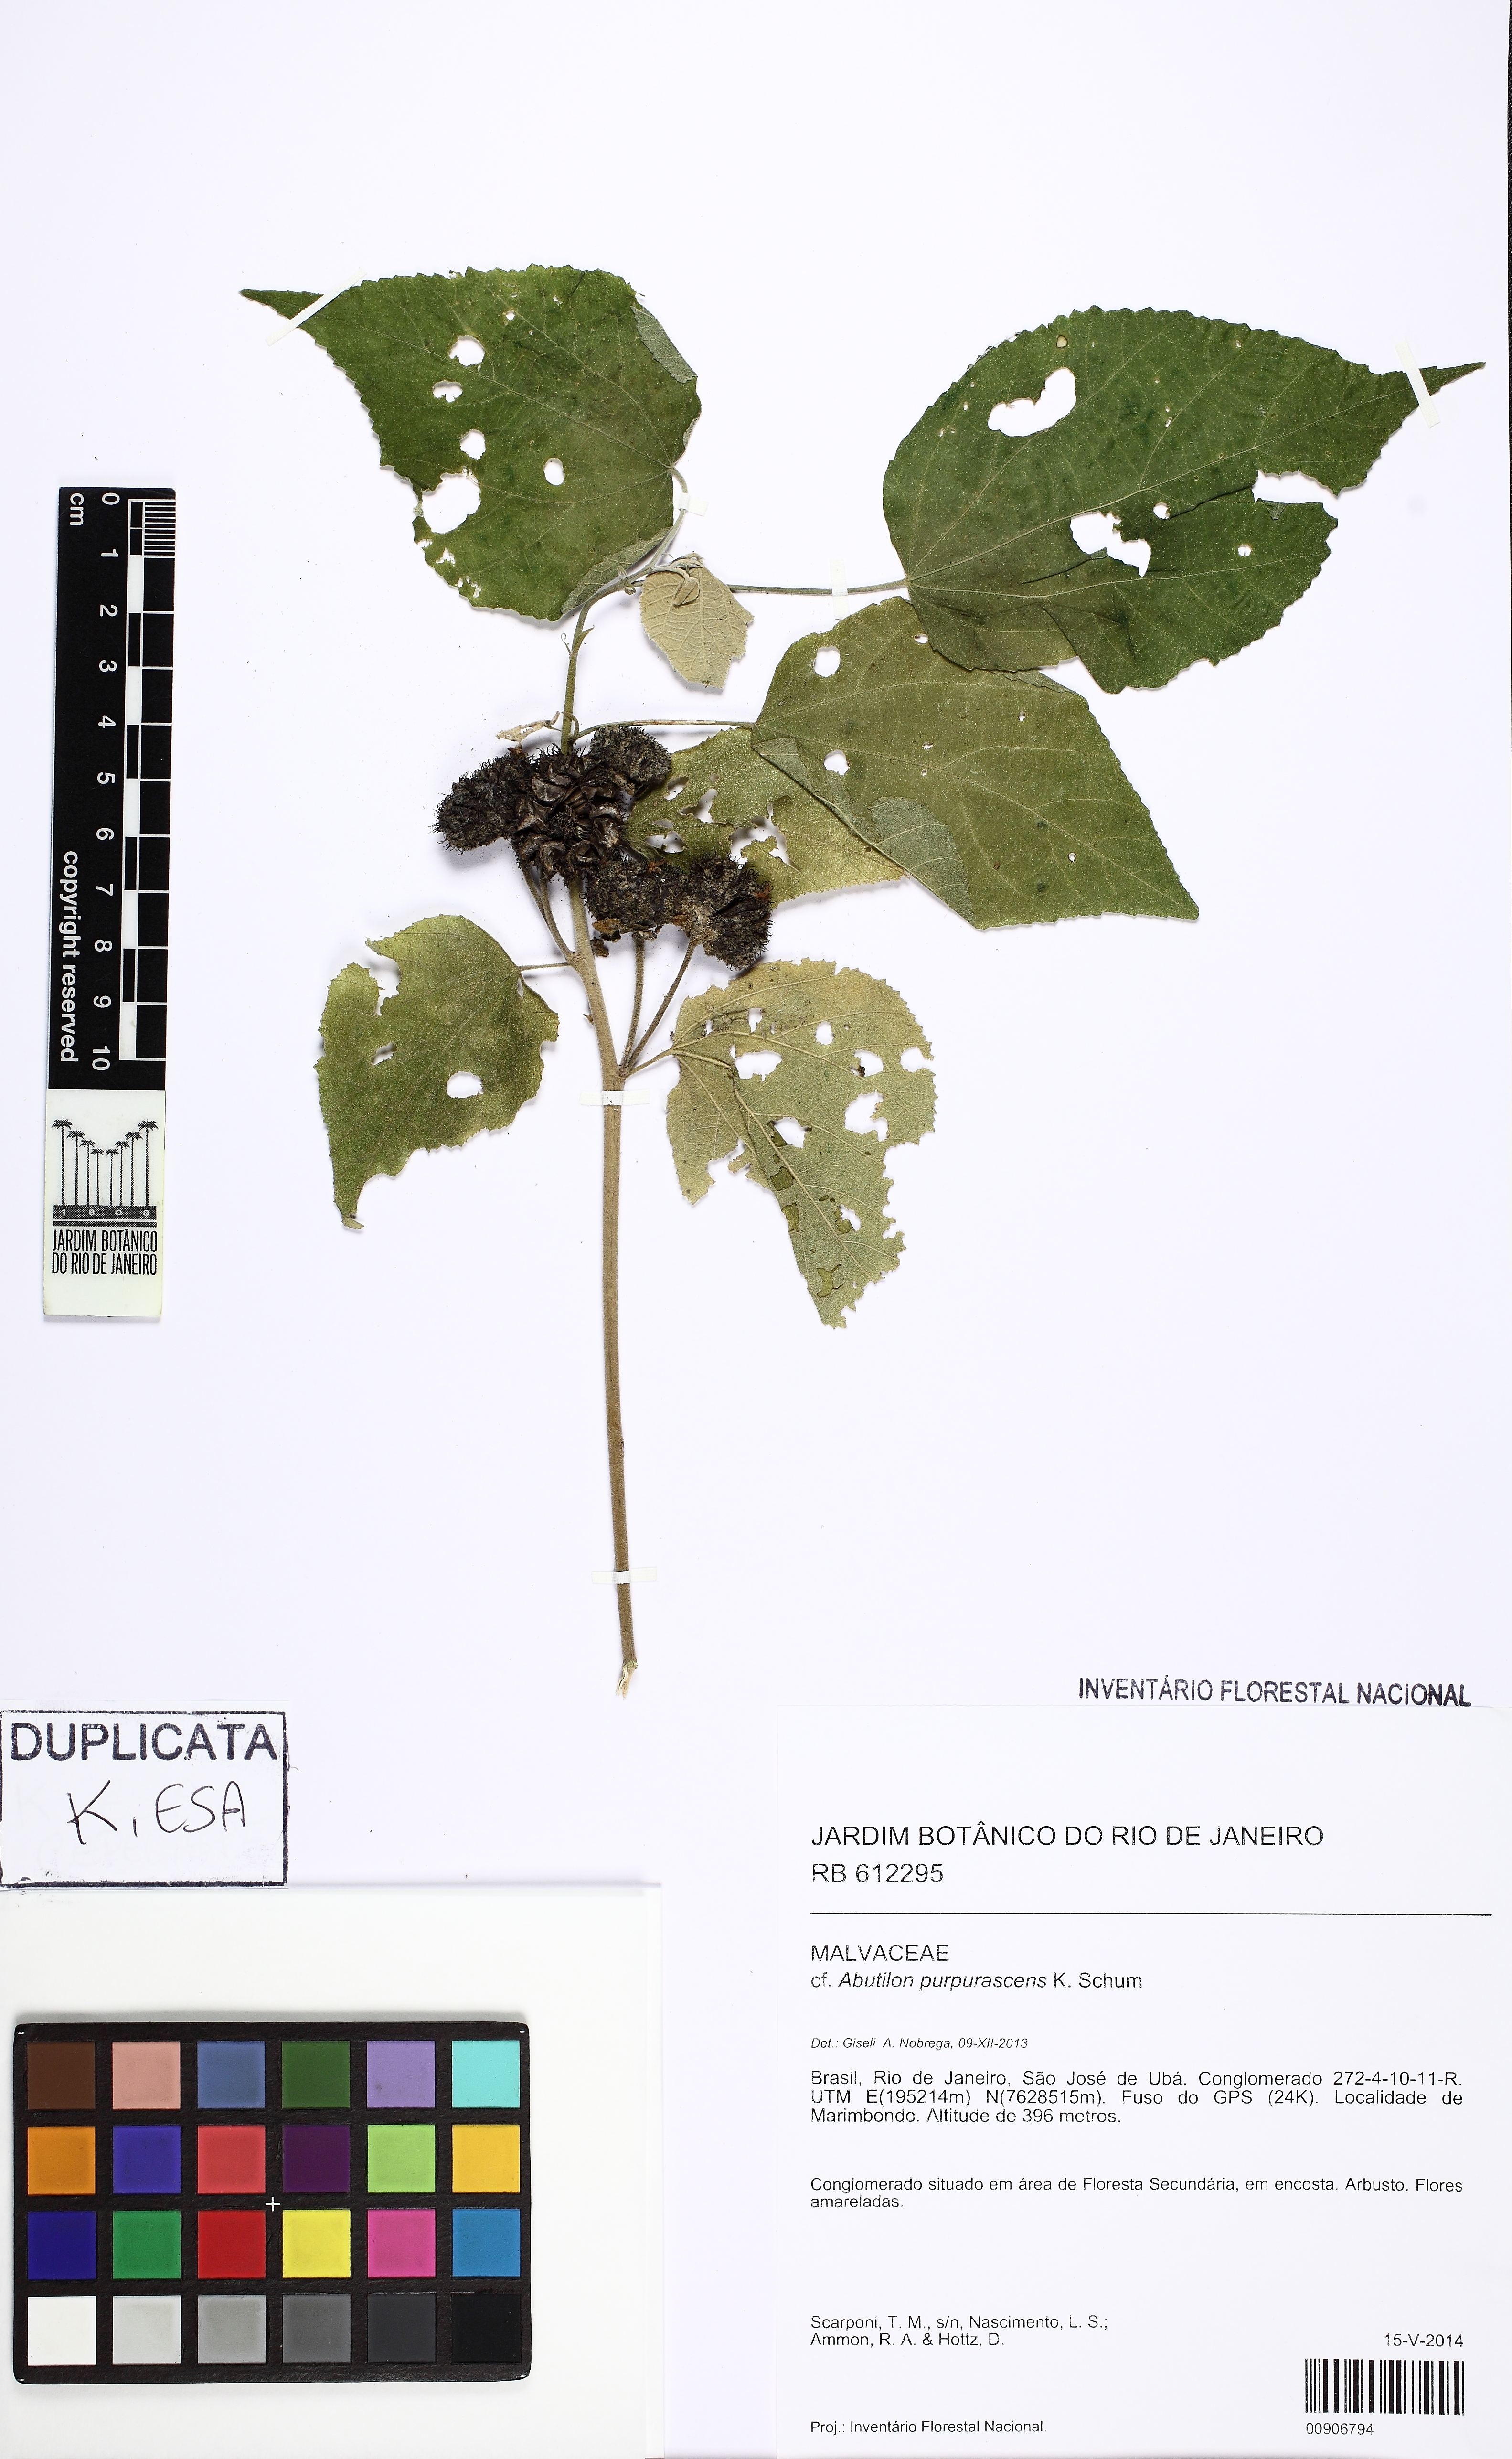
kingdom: Plantae
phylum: Tracheophyta
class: Magnoliopsida
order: Malvales
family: Malvaceae
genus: Bakeridesia
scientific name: Bakeridesia esculenta
